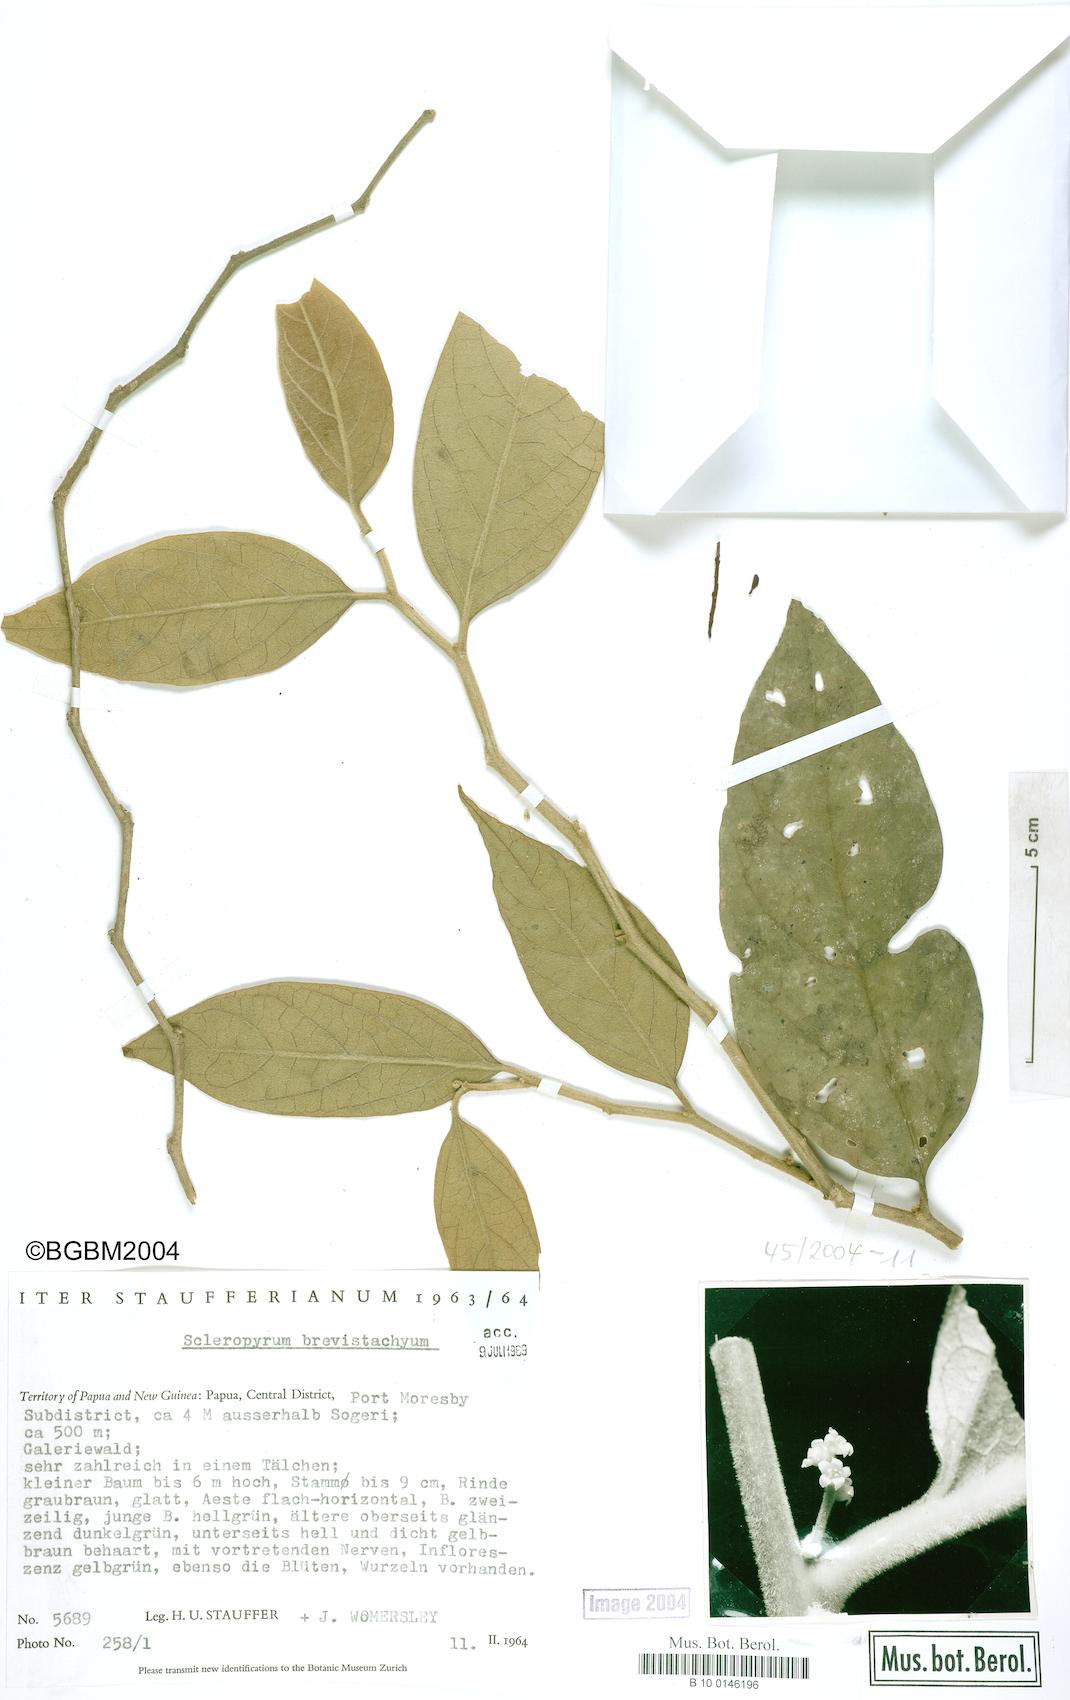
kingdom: Plantae
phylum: Tracheophyta
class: Magnoliopsida
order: Santalales
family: Cervantesiaceae
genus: Scleropyrum
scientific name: Scleropyrum brevistachyum
